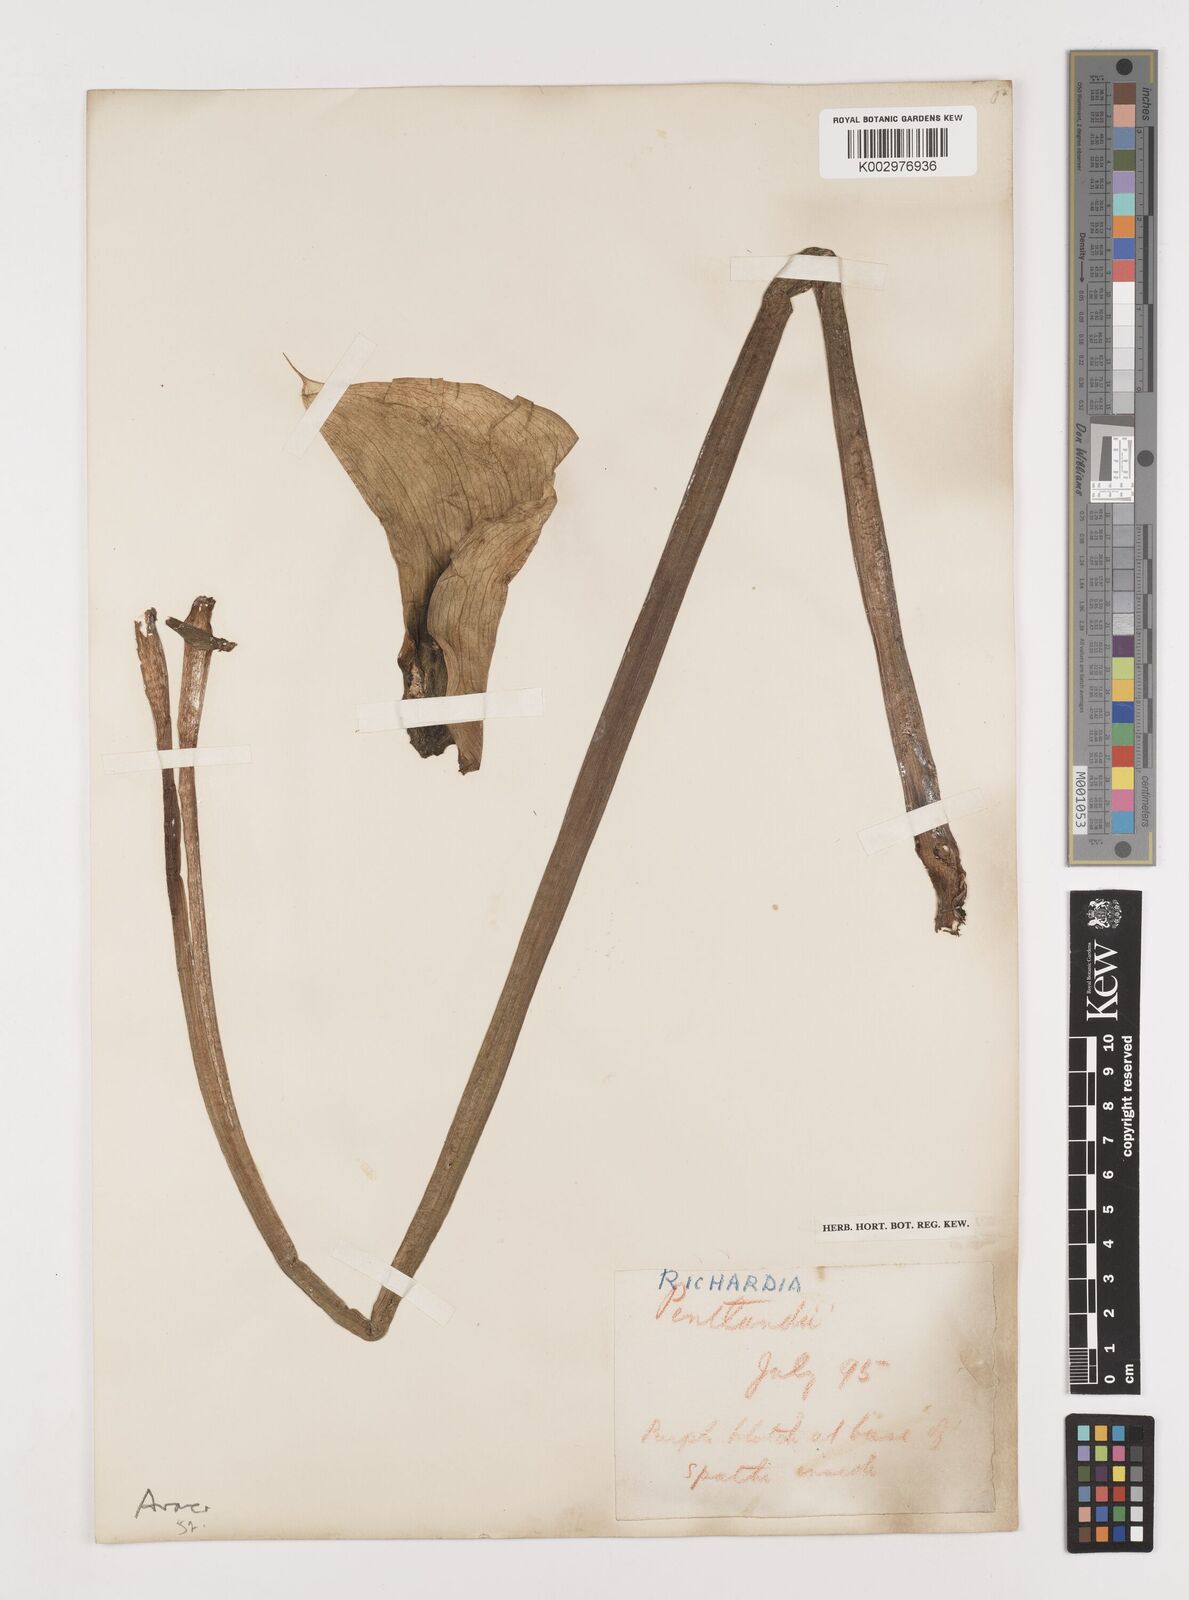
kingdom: Plantae
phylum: Tracheophyta
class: Liliopsida
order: Alismatales
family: Araceae
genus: Zantedeschia
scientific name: Zantedeschia pentlandii
